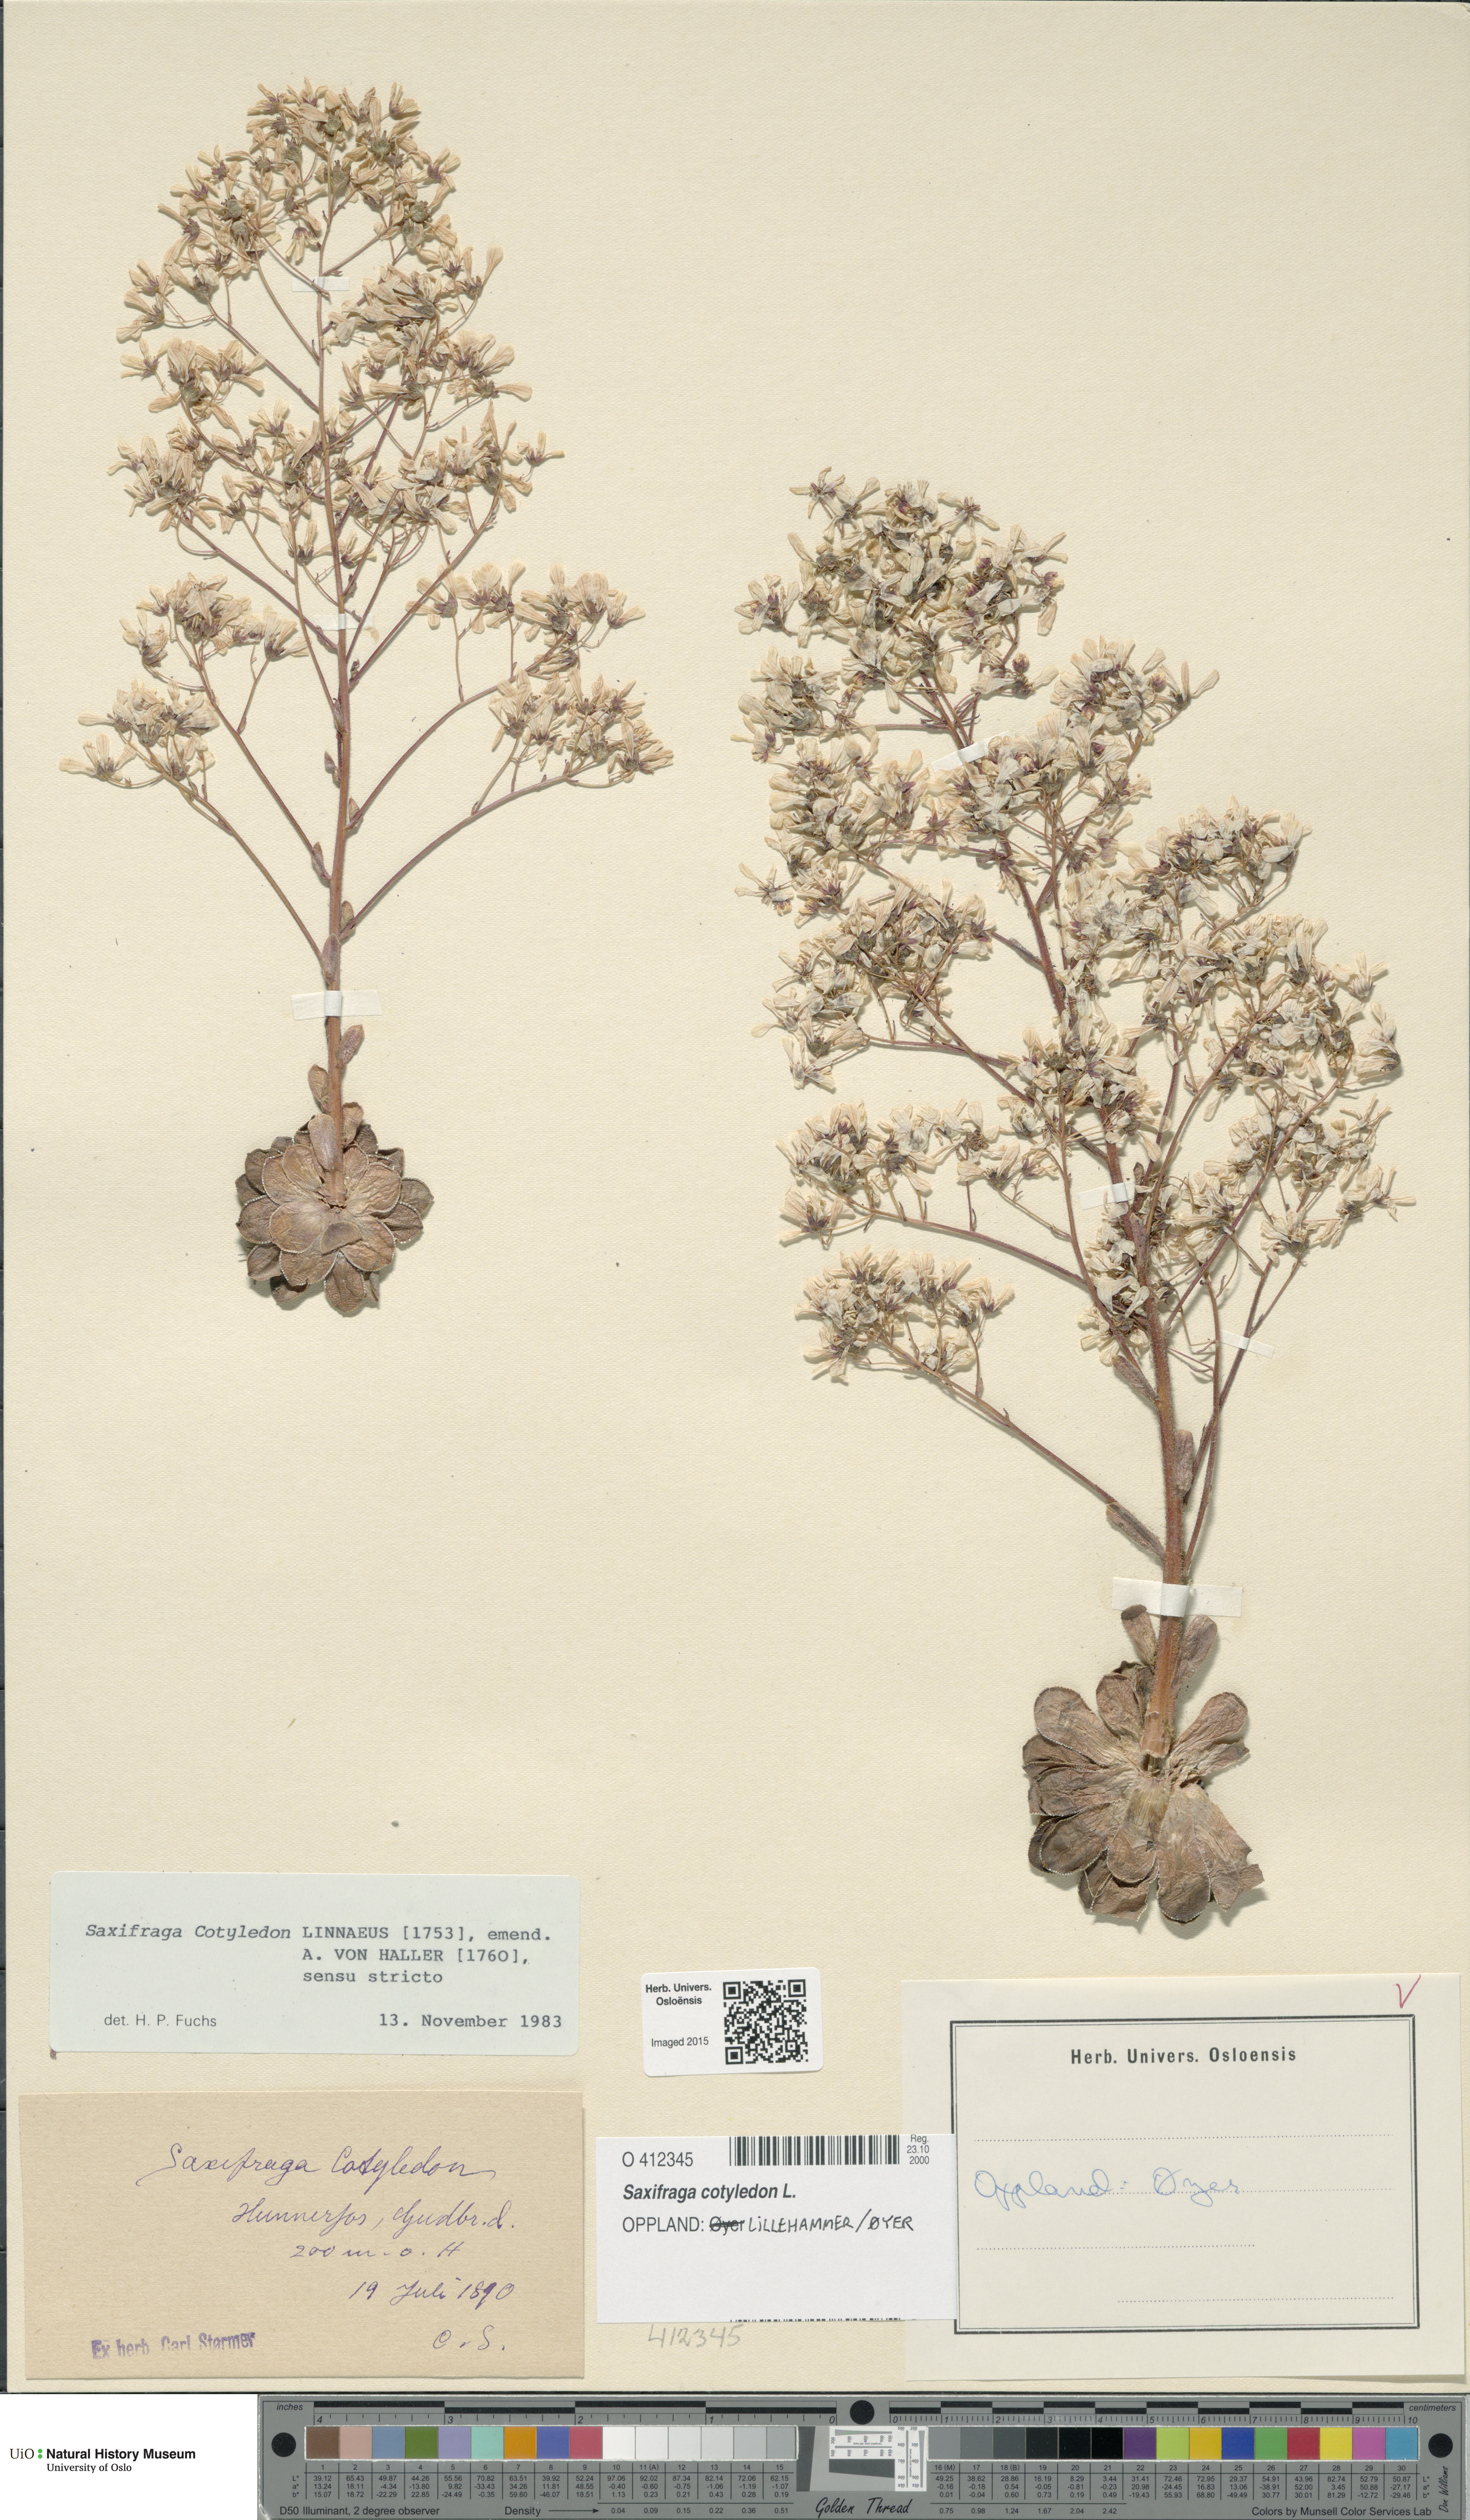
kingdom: Plantae
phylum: Tracheophyta
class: Magnoliopsida
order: Saxifragales
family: Saxifragaceae
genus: Saxifraga
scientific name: Saxifraga cotyledon
